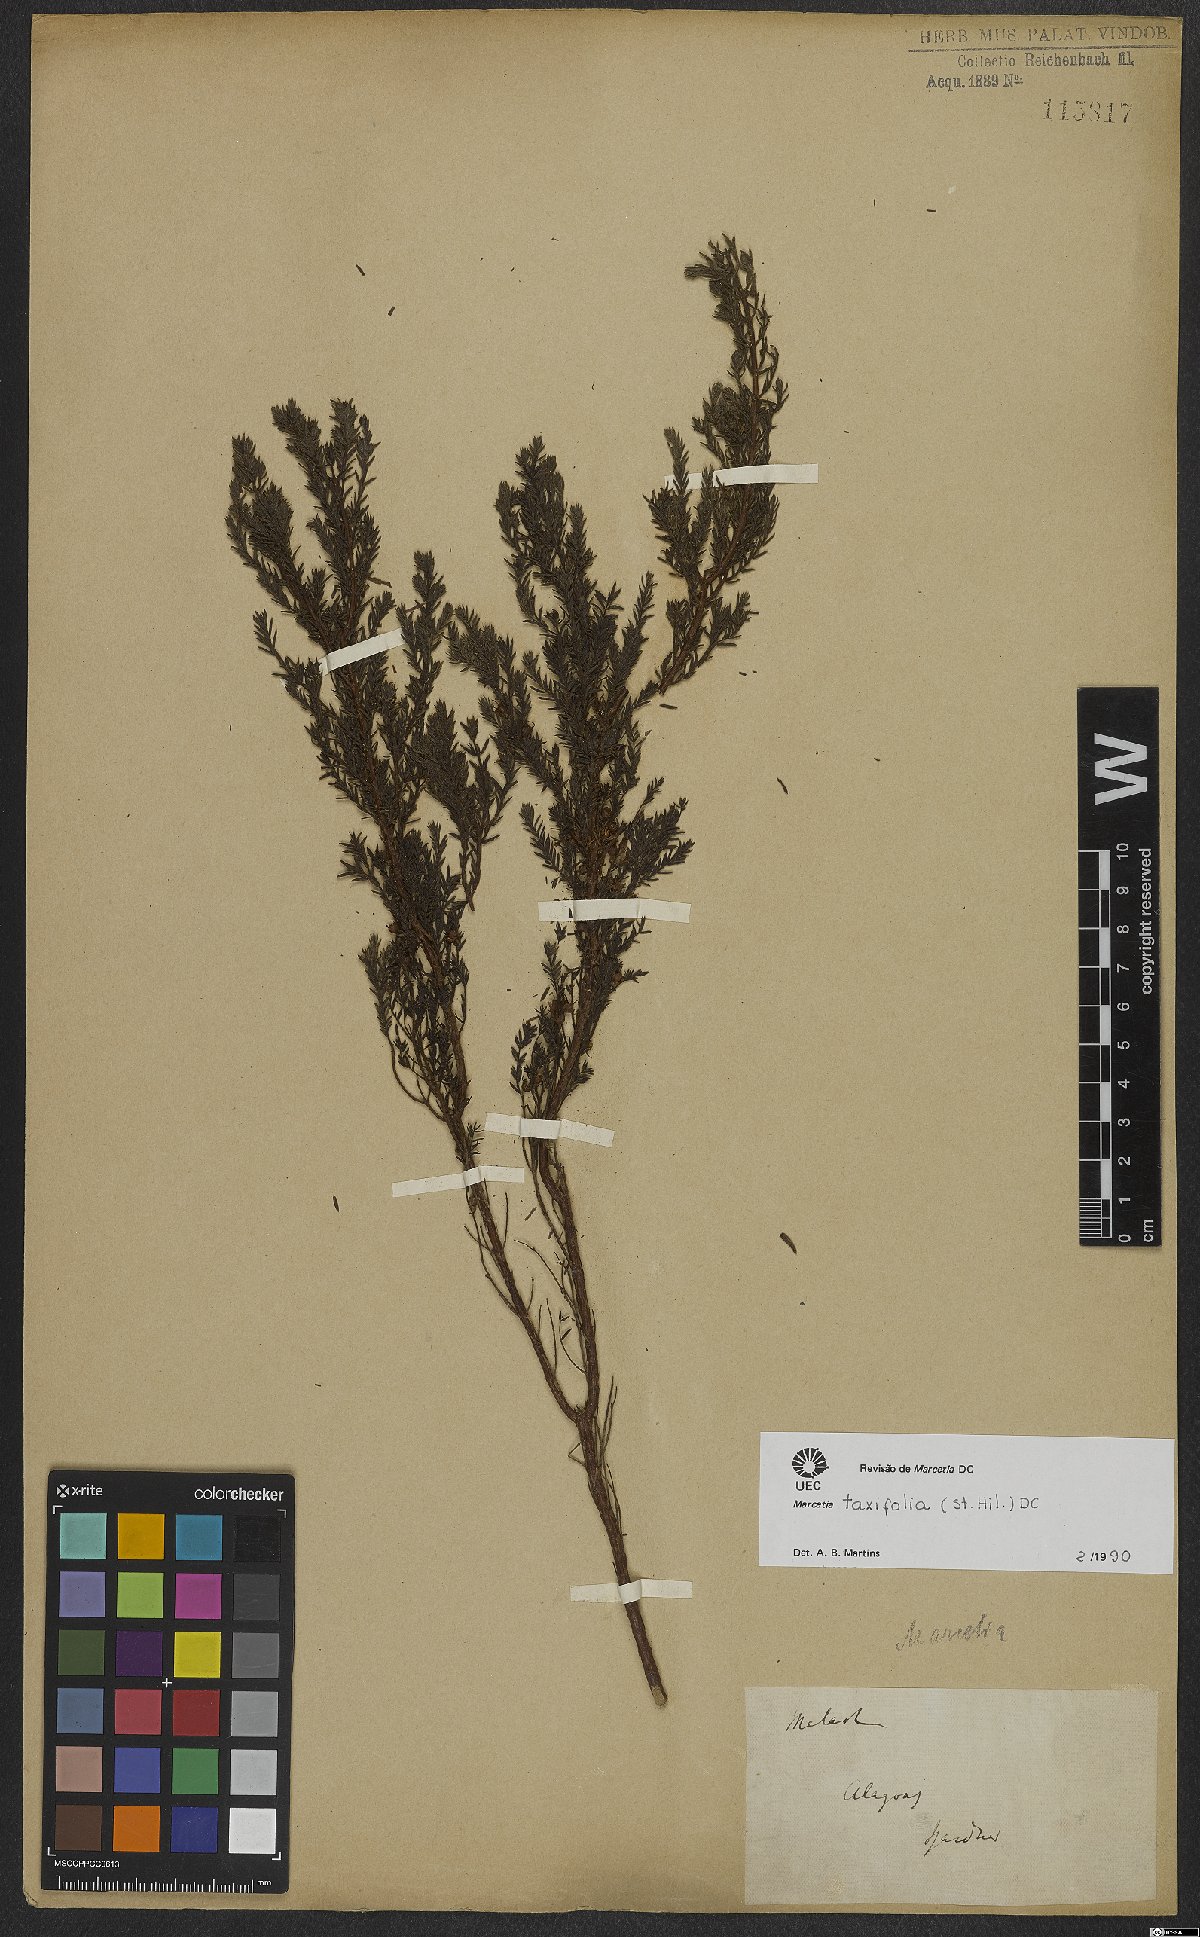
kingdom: Plantae
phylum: Tracheophyta
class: Magnoliopsida
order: Myrtales
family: Melastomataceae
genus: Marcetia
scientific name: Marcetia taxifolia
